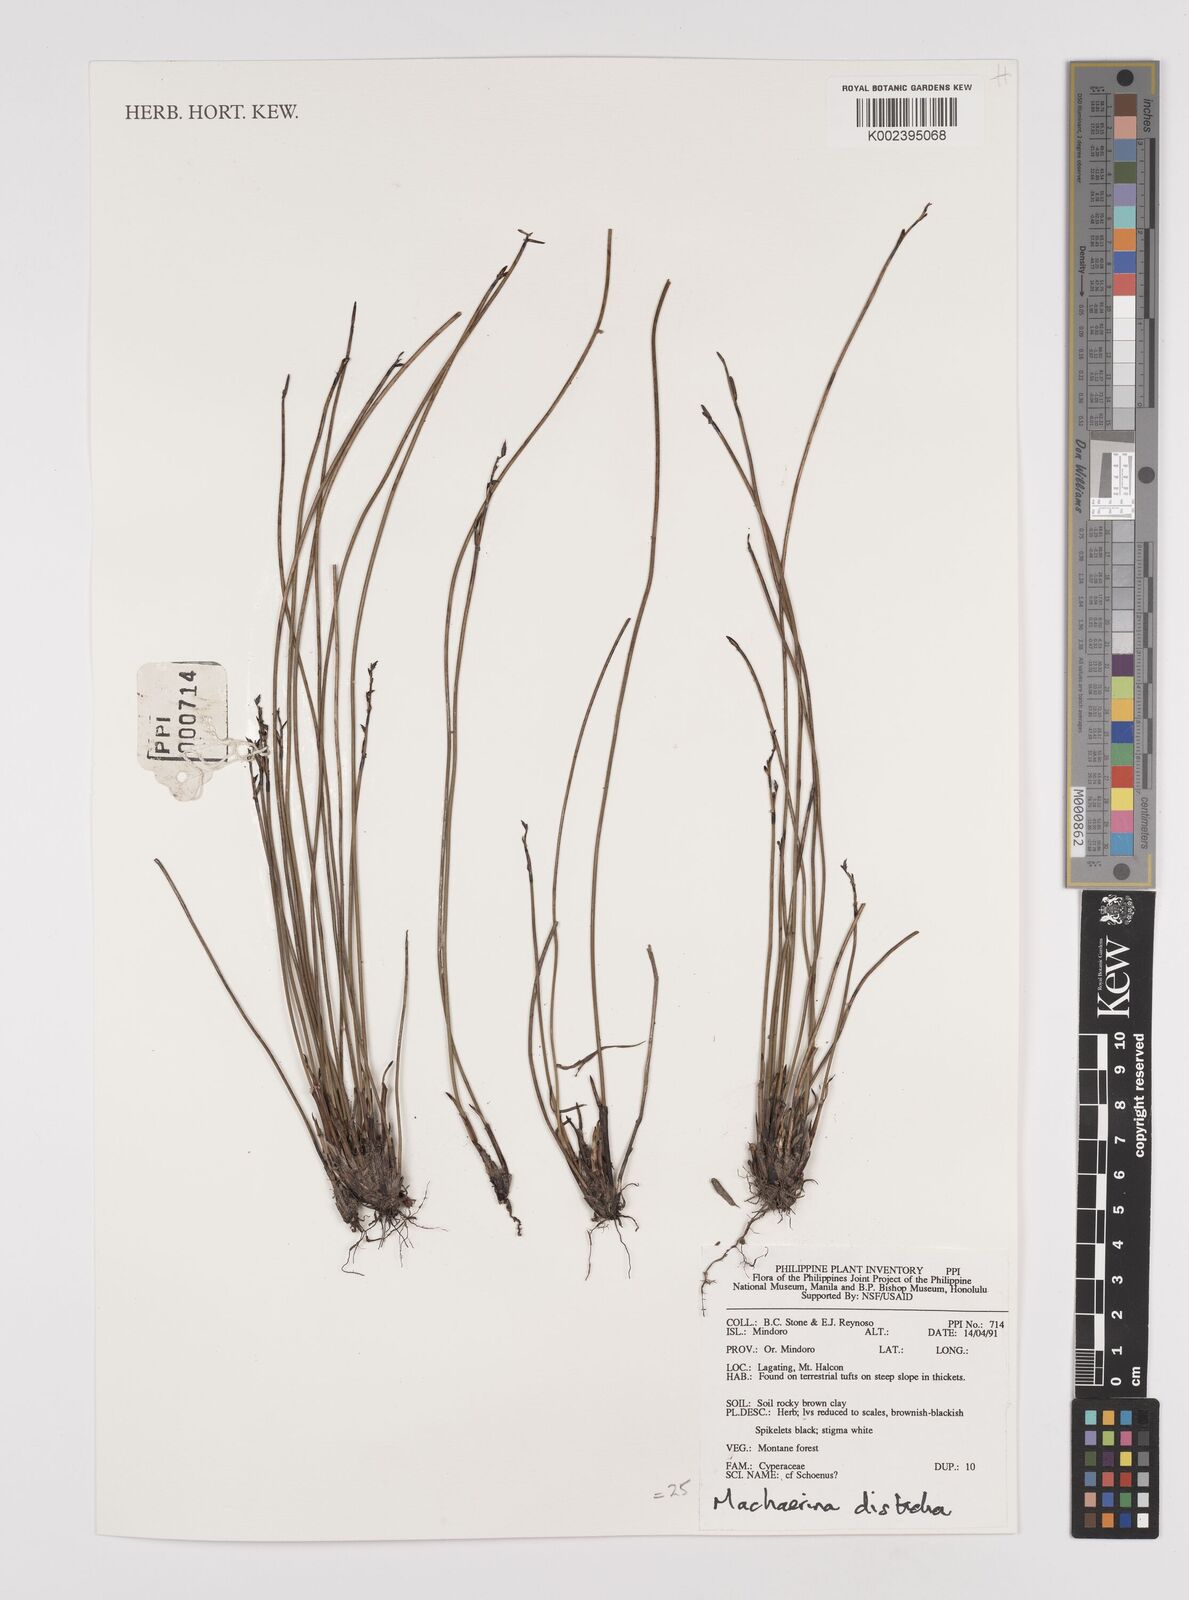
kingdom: Plantae
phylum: Tracheophyta
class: Liliopsida
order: Poales
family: Cyperaceae
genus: Machaerina
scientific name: Machaerina disticha
